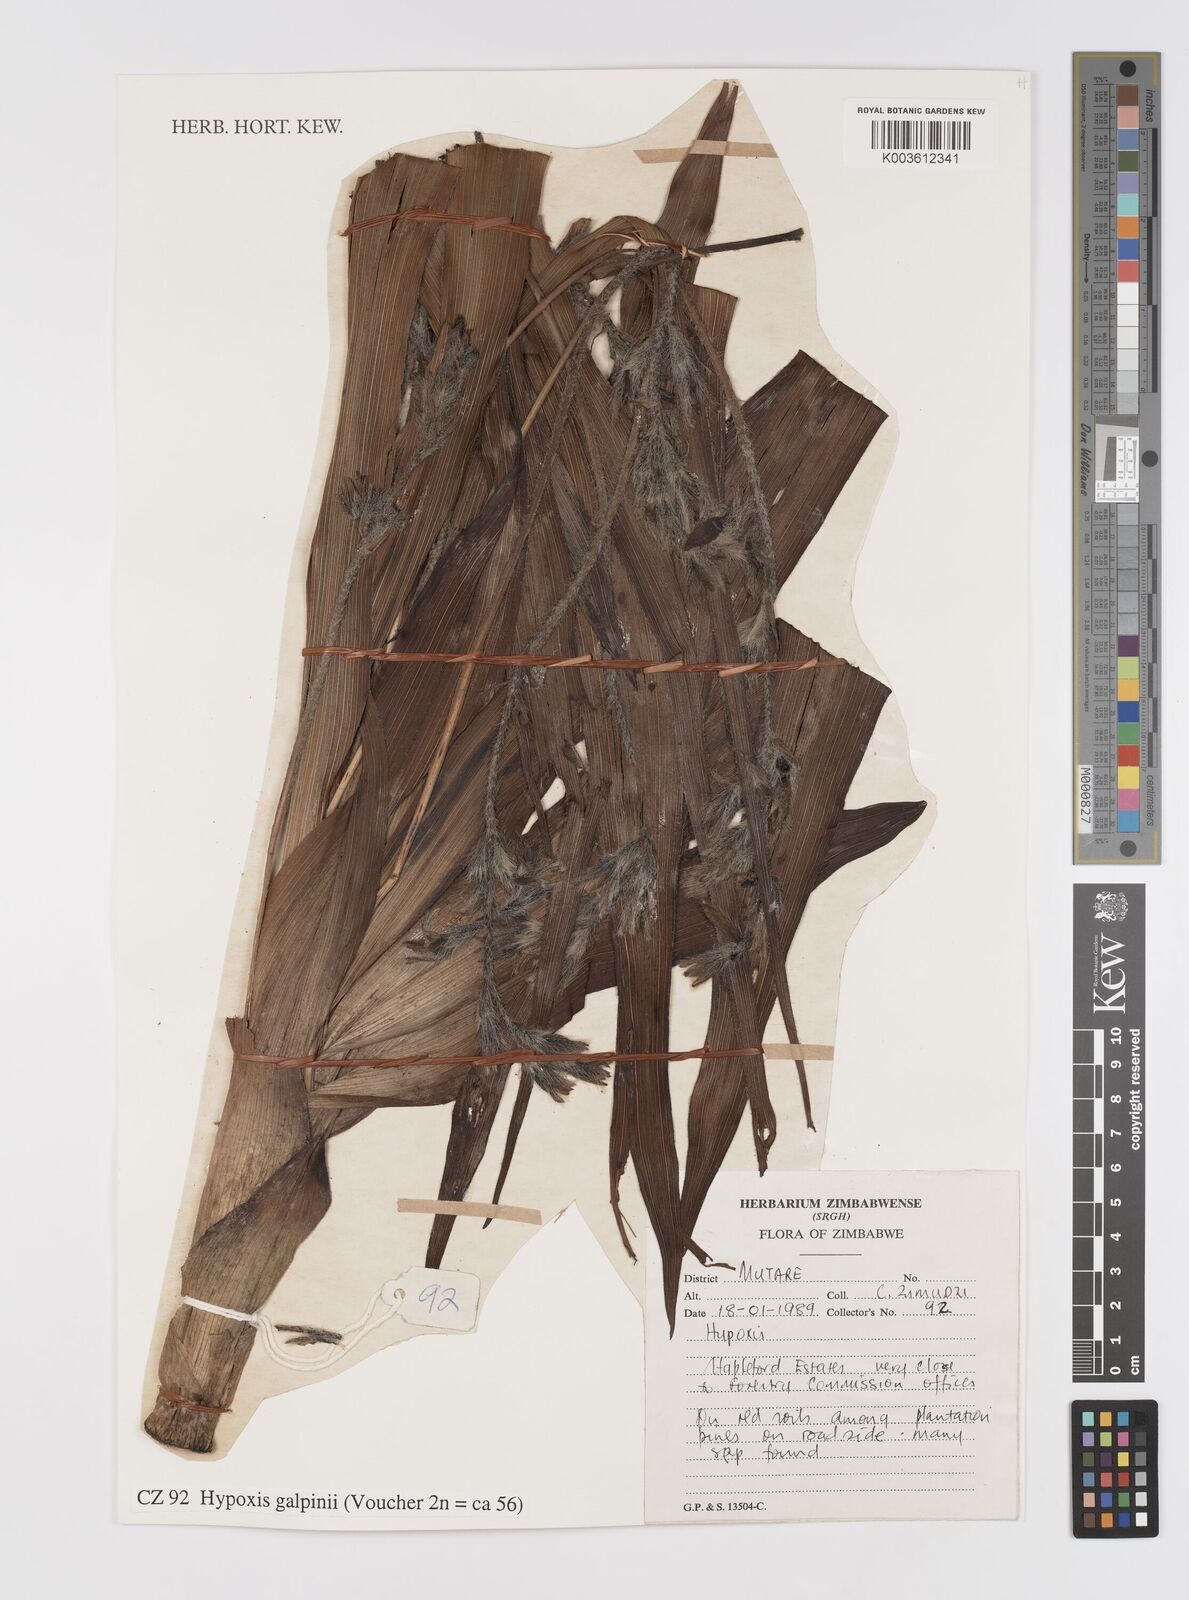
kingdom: Plantae
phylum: Tracheophyta
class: Liliopsida
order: Asparagales
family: Hypoxidaceae
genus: Hypoxis
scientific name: Hypoxis galpinii
